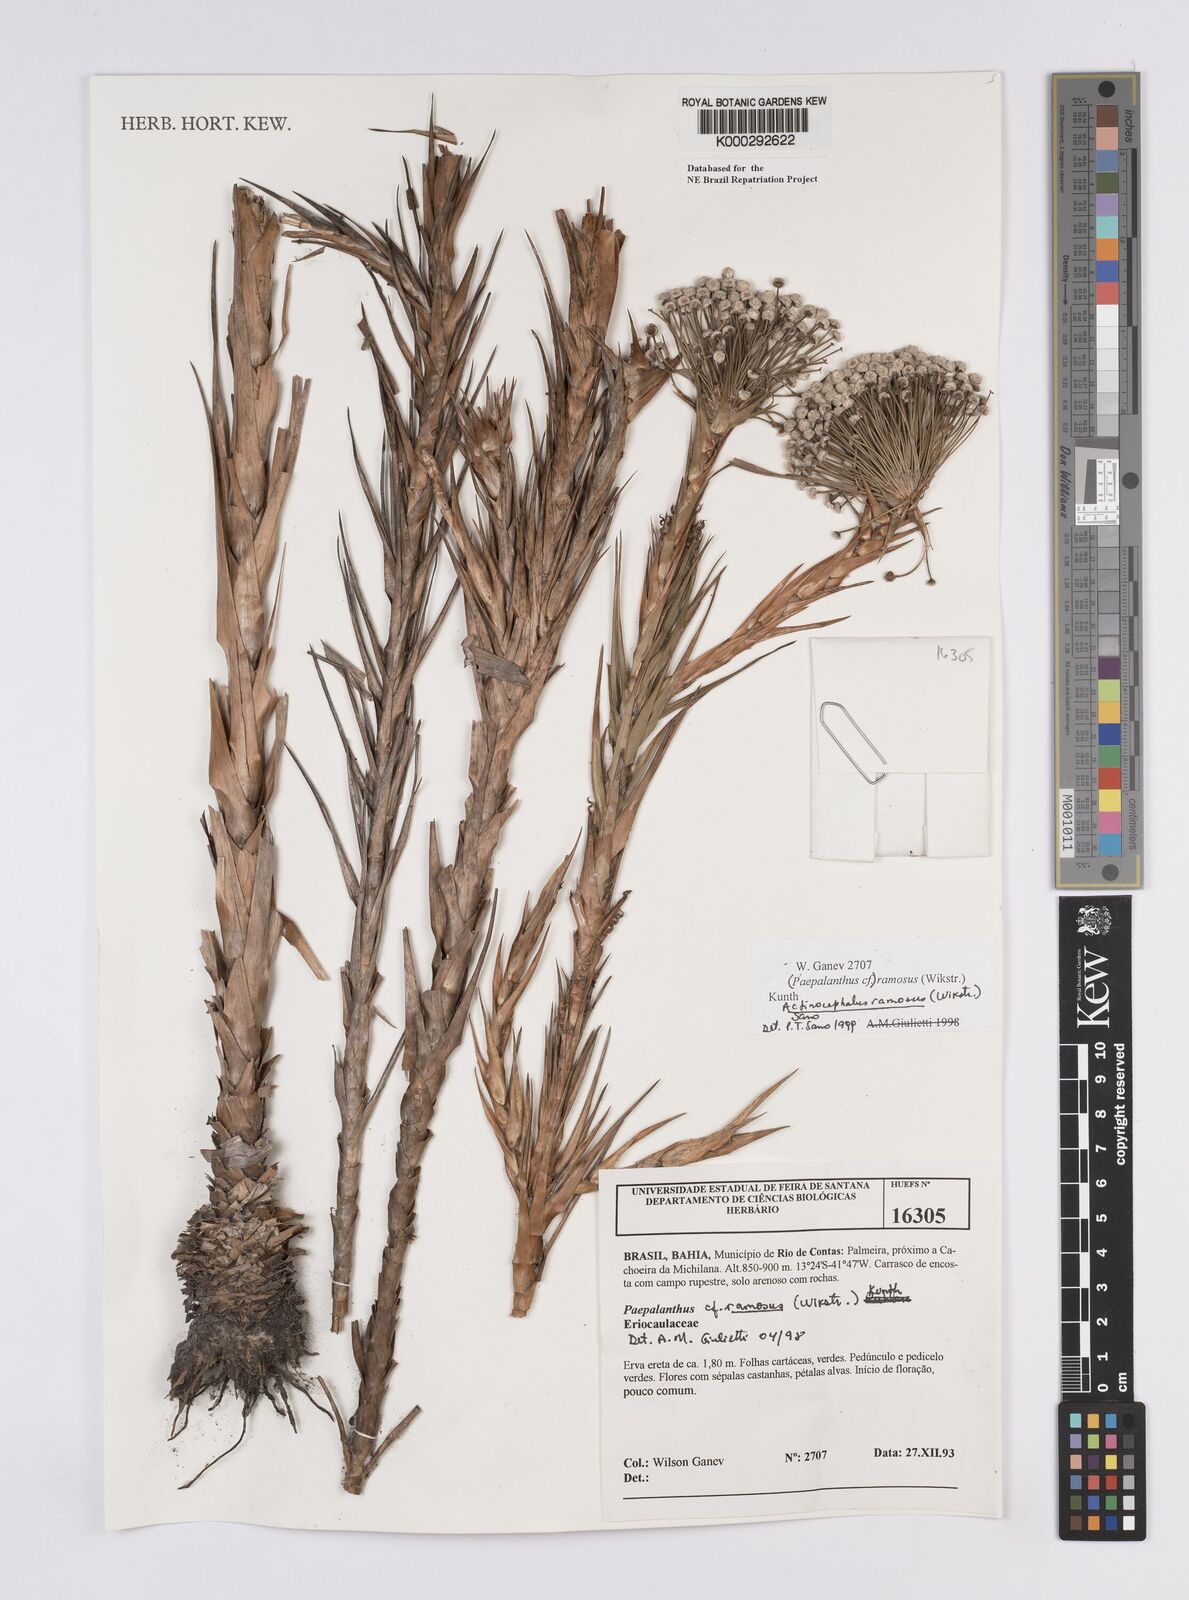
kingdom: Plantae
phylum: Tracheophyta
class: Liliopsida
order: Poales
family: Eriocaulaceae
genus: Paepalanthus
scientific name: Paepalanthus ramosus
